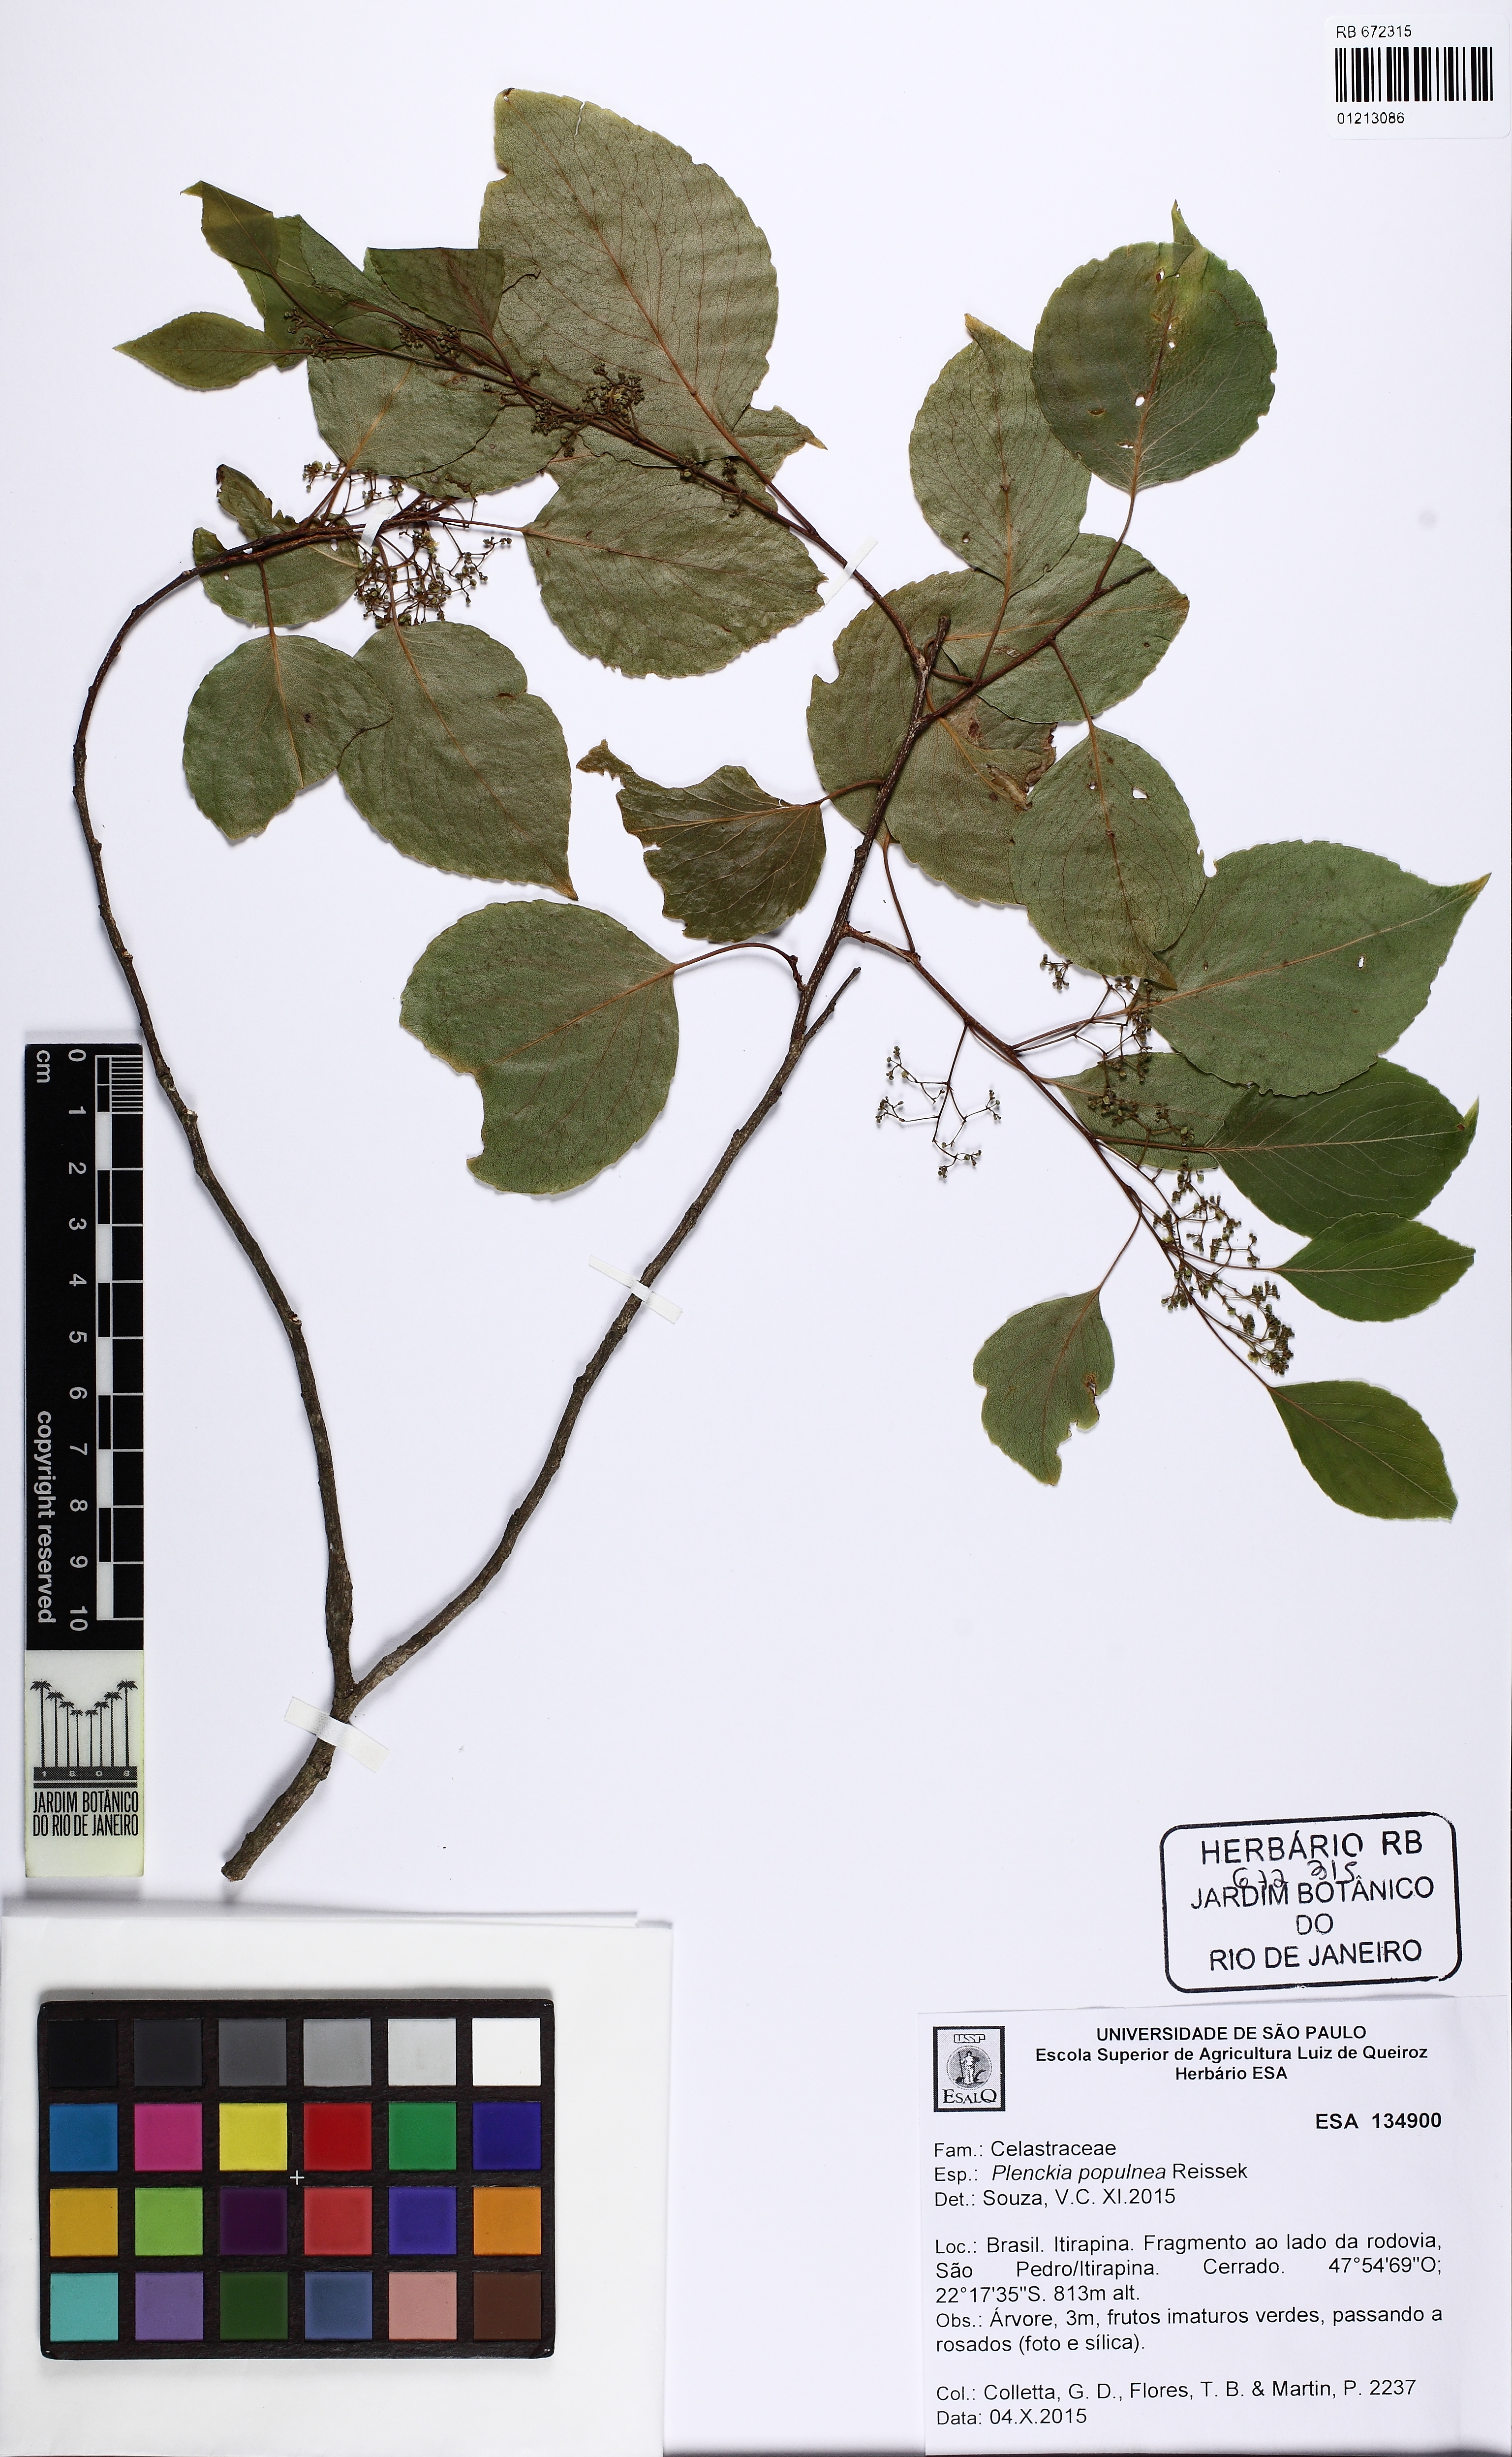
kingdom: Plantae
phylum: Tracheophyta
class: Magnoliopsida
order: Celastrales
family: Celastraceae
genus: Plenckia
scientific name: Plenckia populnea
